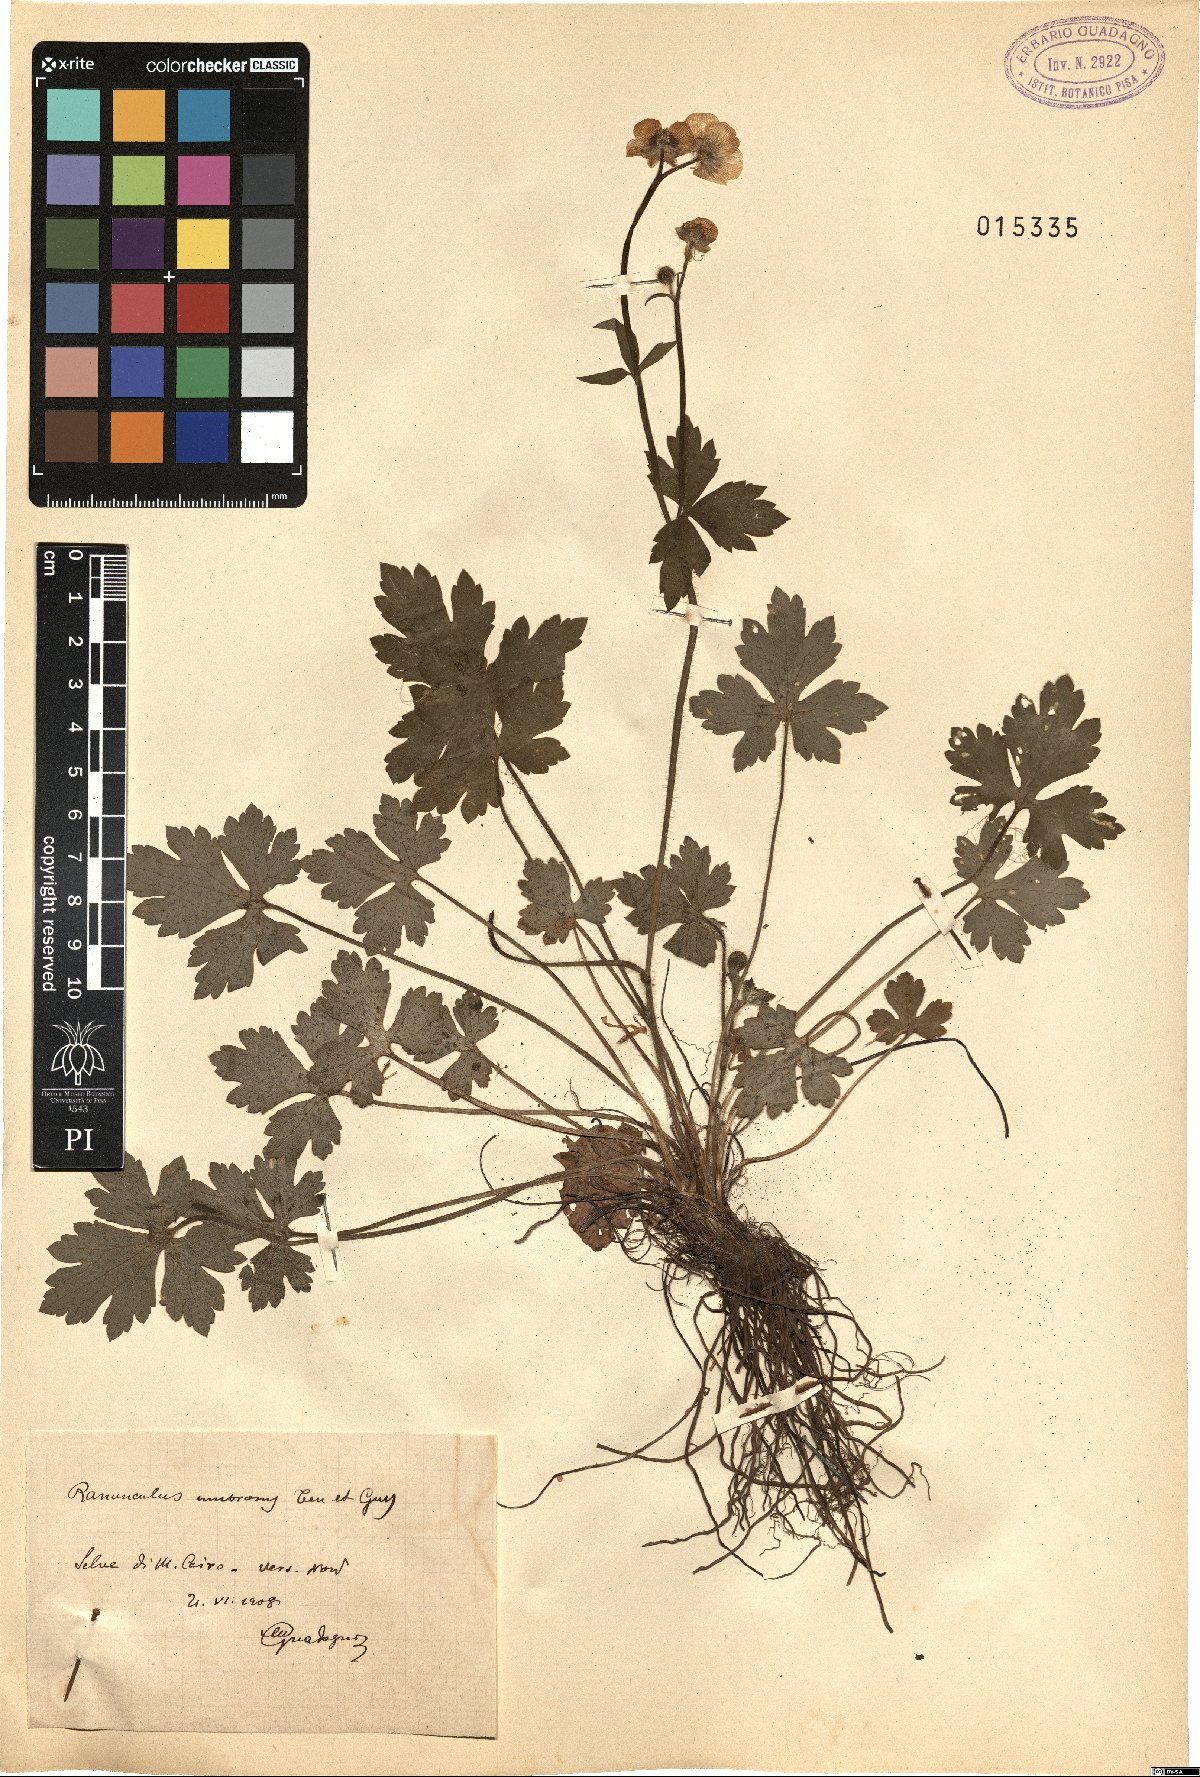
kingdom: Plantae
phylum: Tracheophyta
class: Magnoliopsida
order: Ranunculales
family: Ranunculaceae
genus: Ranunculus
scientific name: Ranunculus lanuginosus
